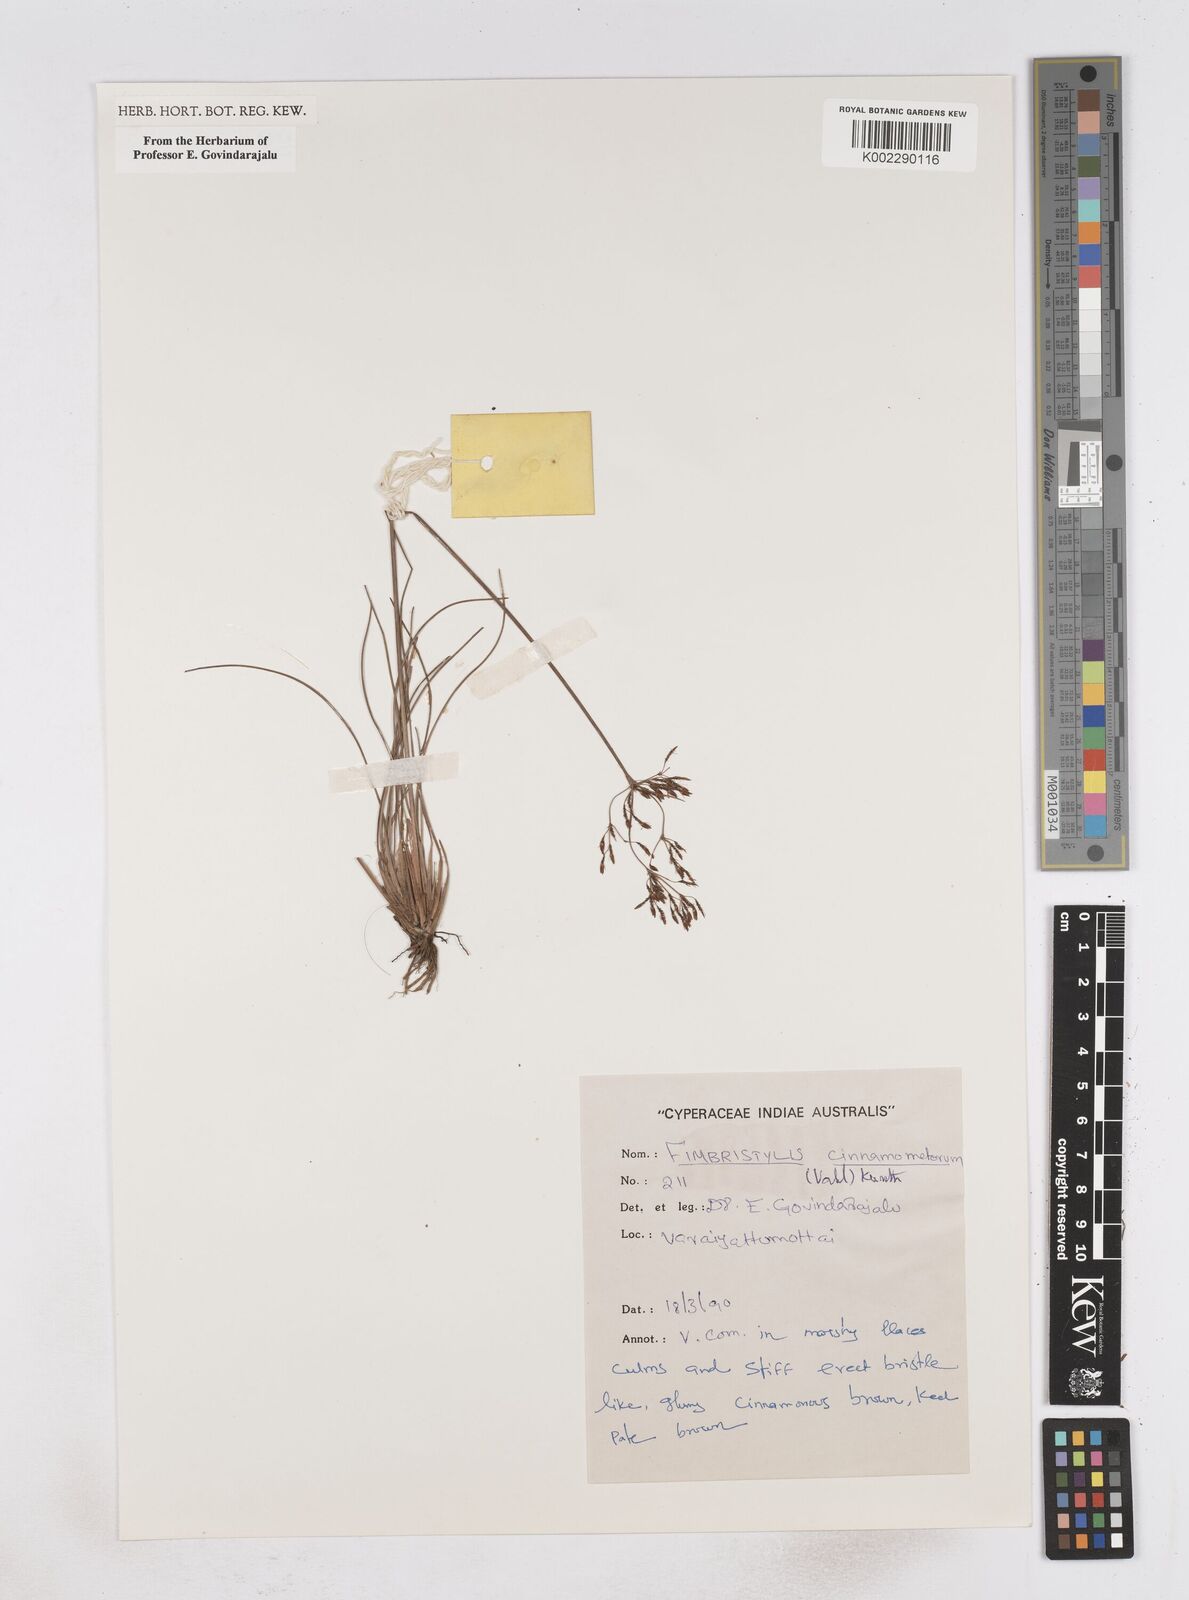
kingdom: Plantae
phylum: Tracheophyta
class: Liliopsida
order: Poales
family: Cyperaceae
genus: Fimbristylis
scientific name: Fimbristylis cinnamometorum
